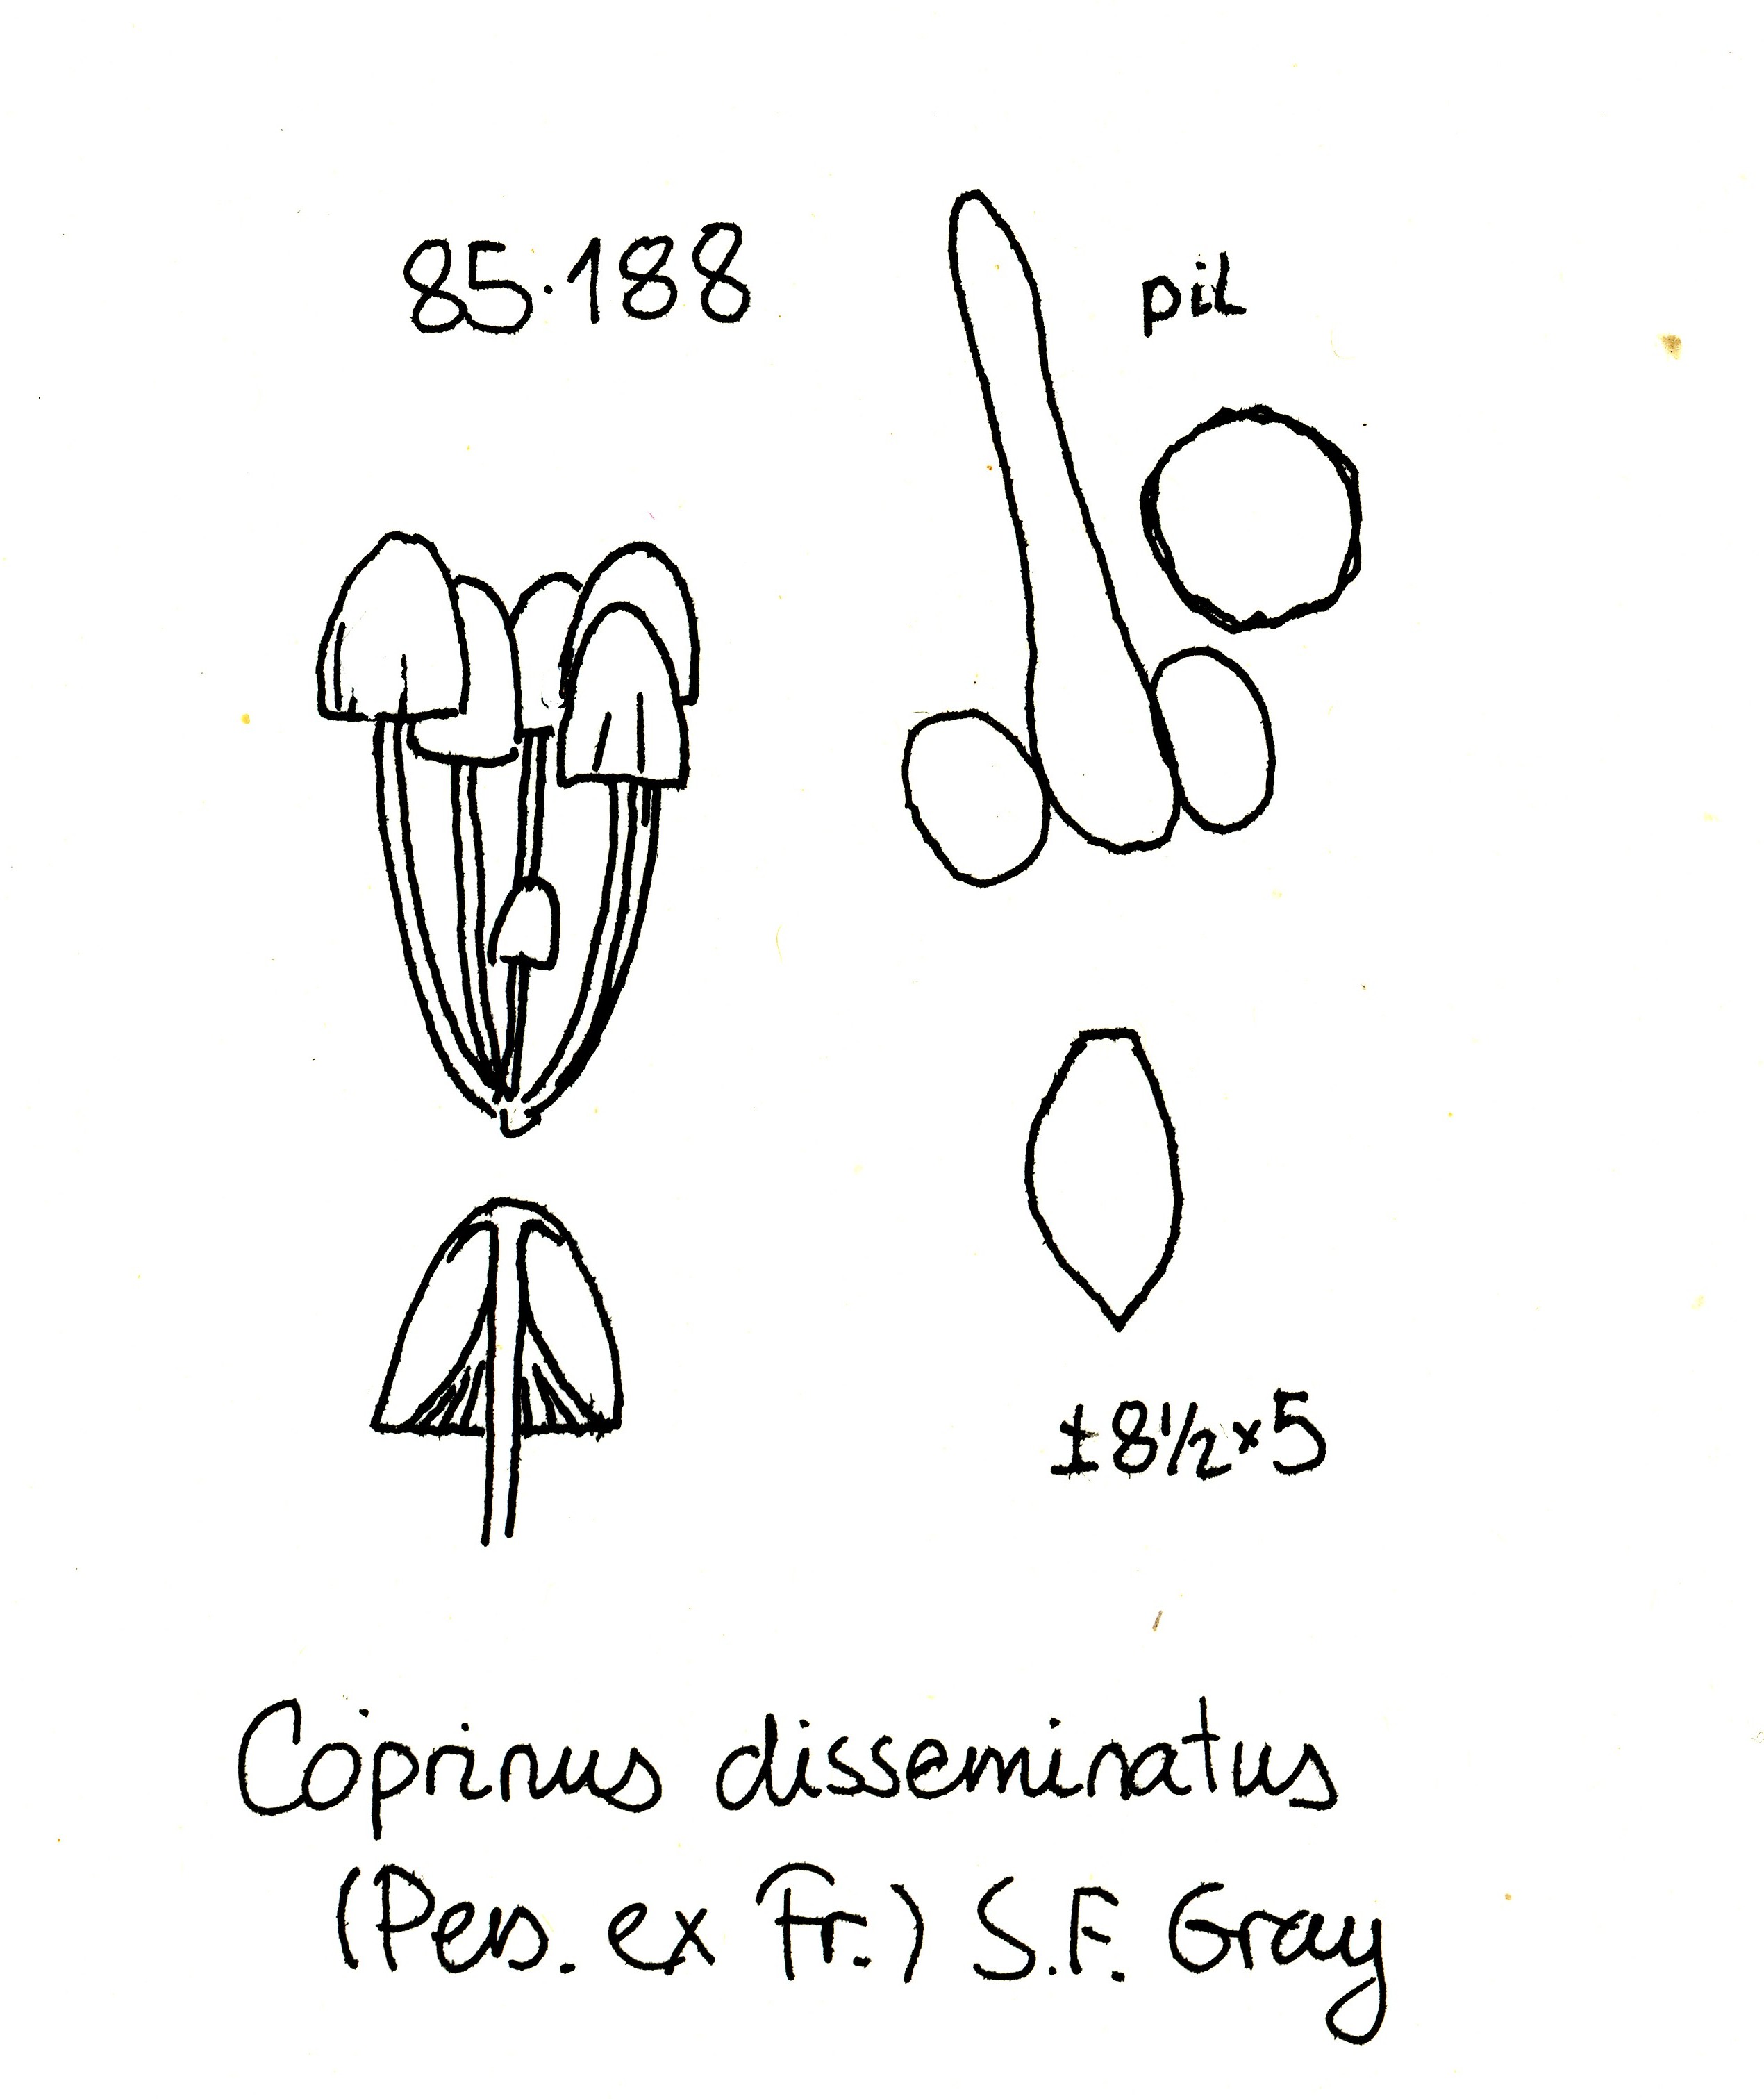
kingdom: Fungi
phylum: Basidiomycota
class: Agaricomycetes
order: Agaricales
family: Psathyrellaceae
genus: Coprinellus
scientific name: Coprinellus disseminatus
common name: bredsået blækhat
